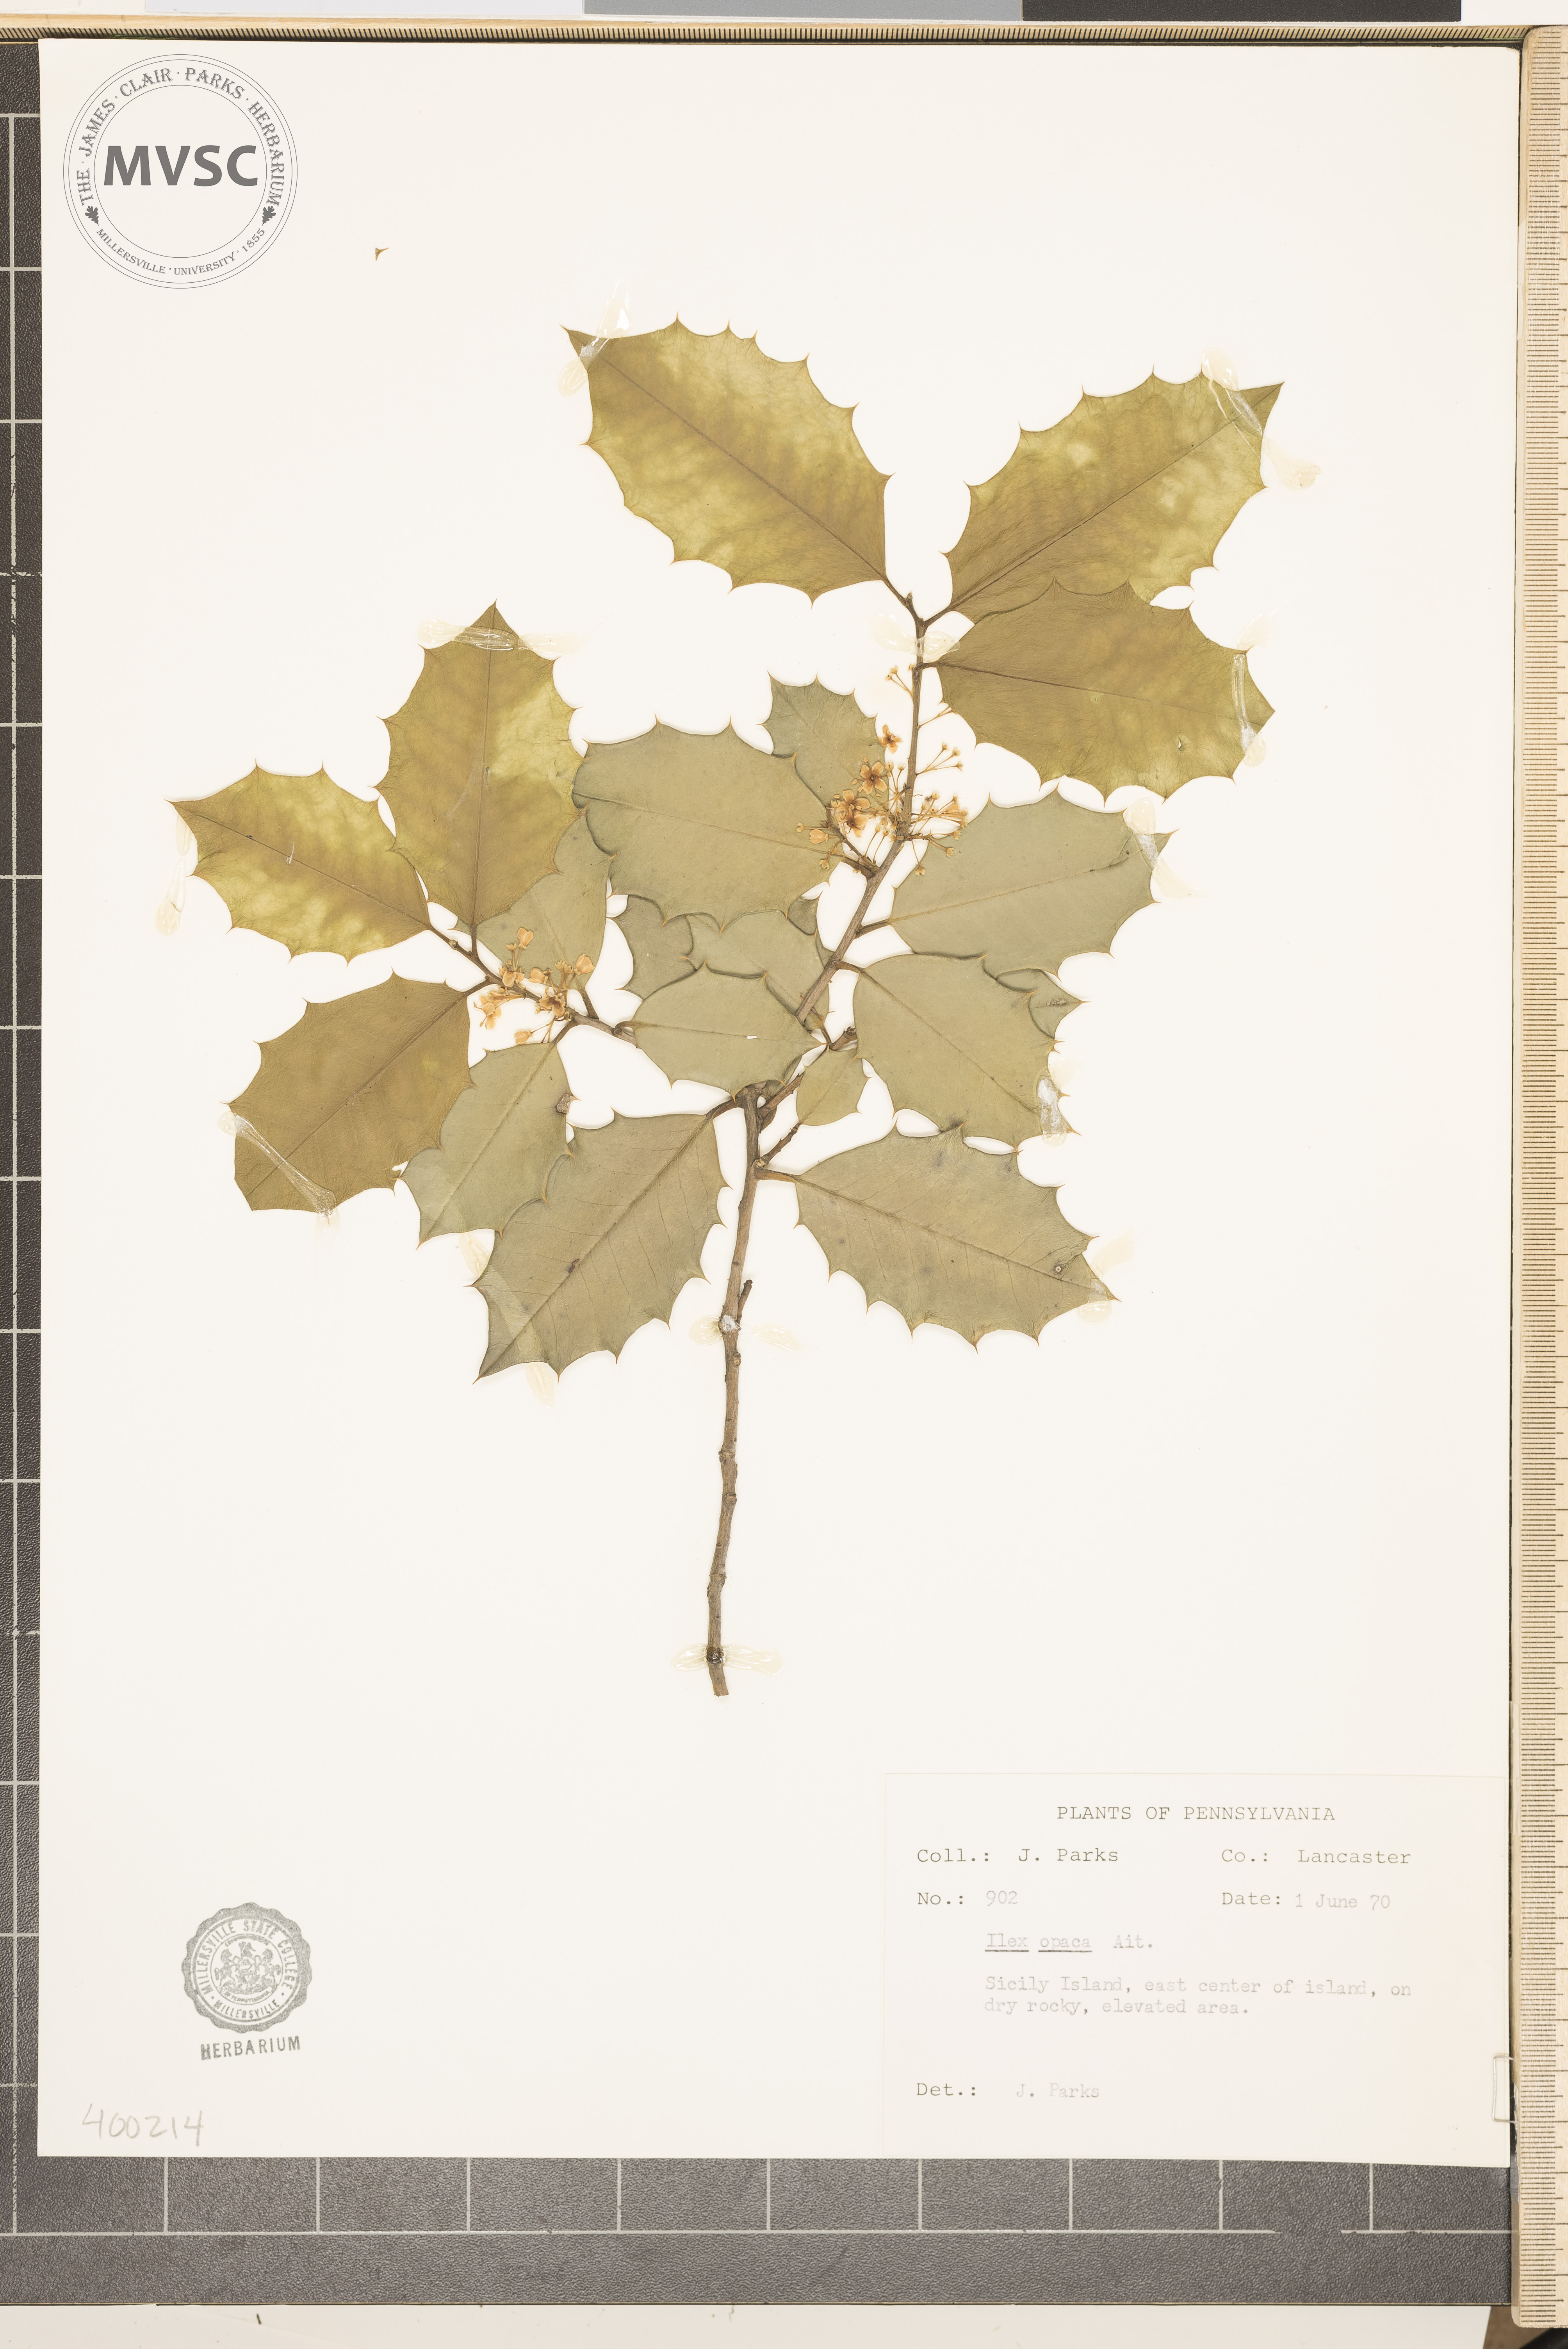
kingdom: Plantae
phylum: Tracheophyta
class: Magnoliopsida
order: Aquifoliales
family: Aquifoliaceae
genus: Ilex
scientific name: Ilex opaca
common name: American holly
